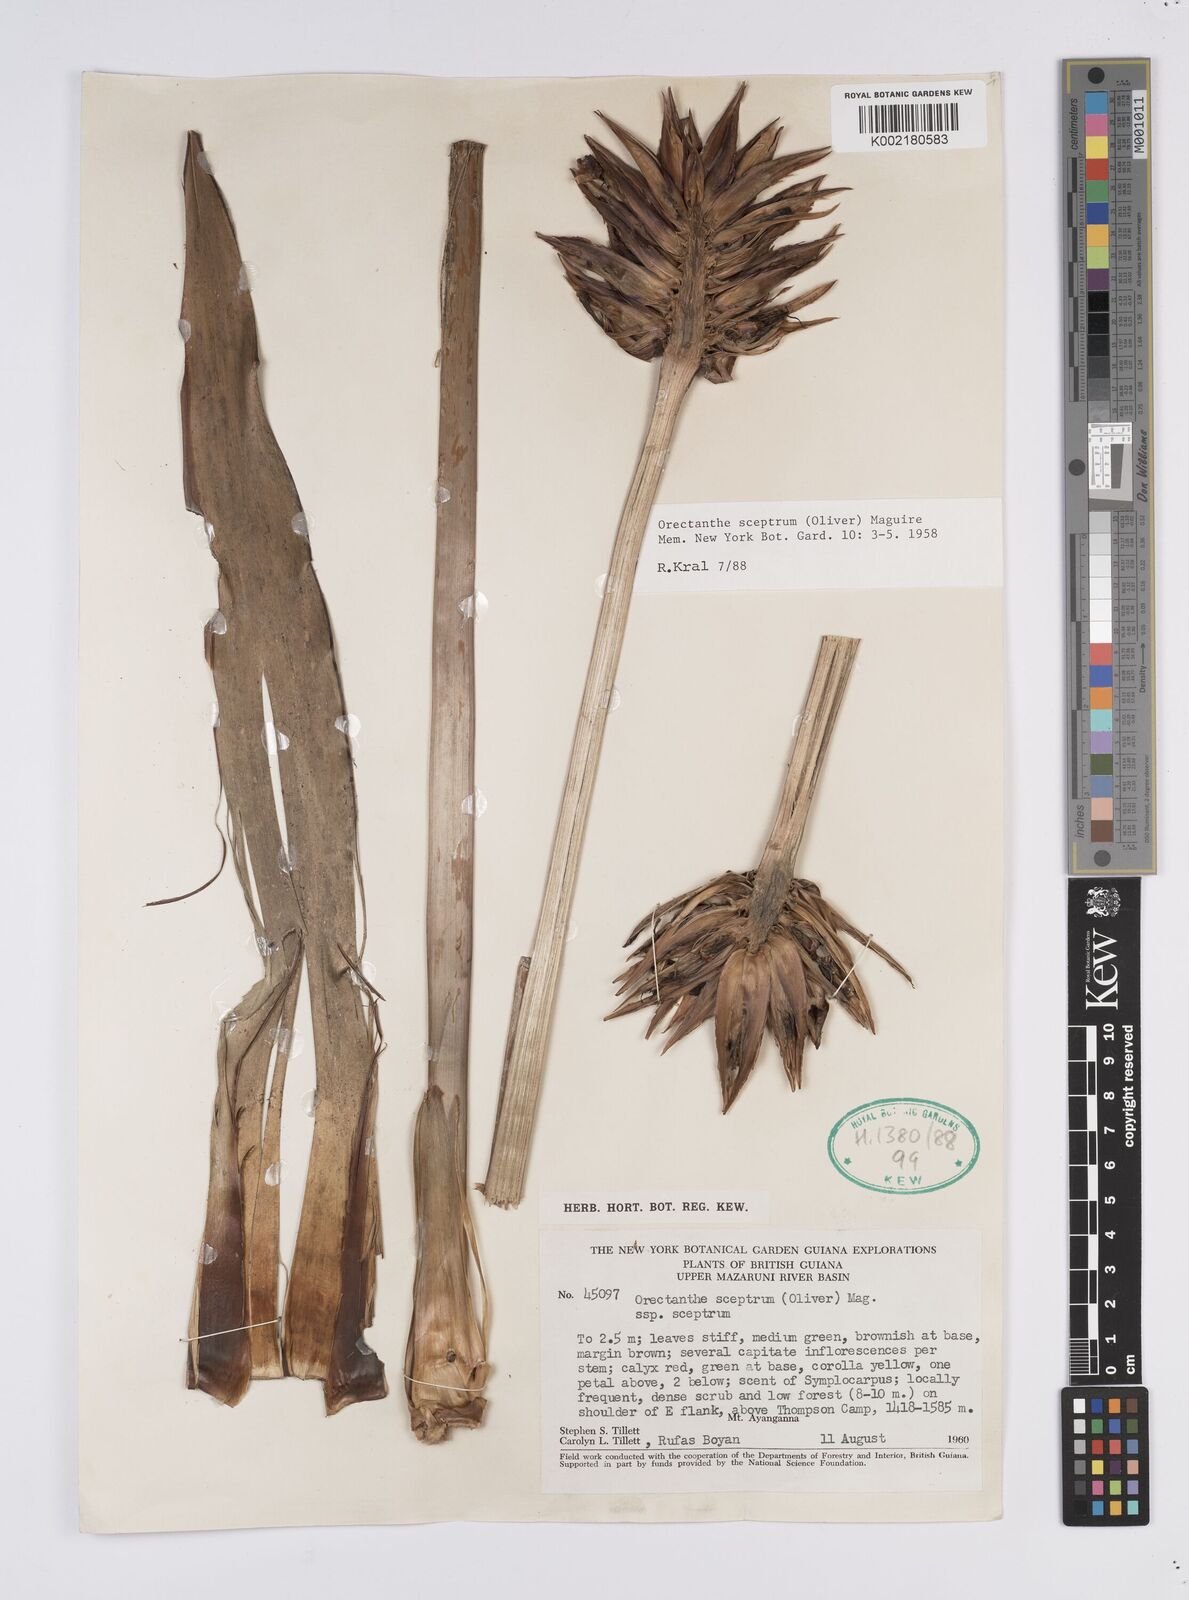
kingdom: Plantae
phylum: Tracheophyta
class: Liliopsida
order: Poales
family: Xyridaceae
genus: Orectanthe
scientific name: Orectanthe sceptrum
